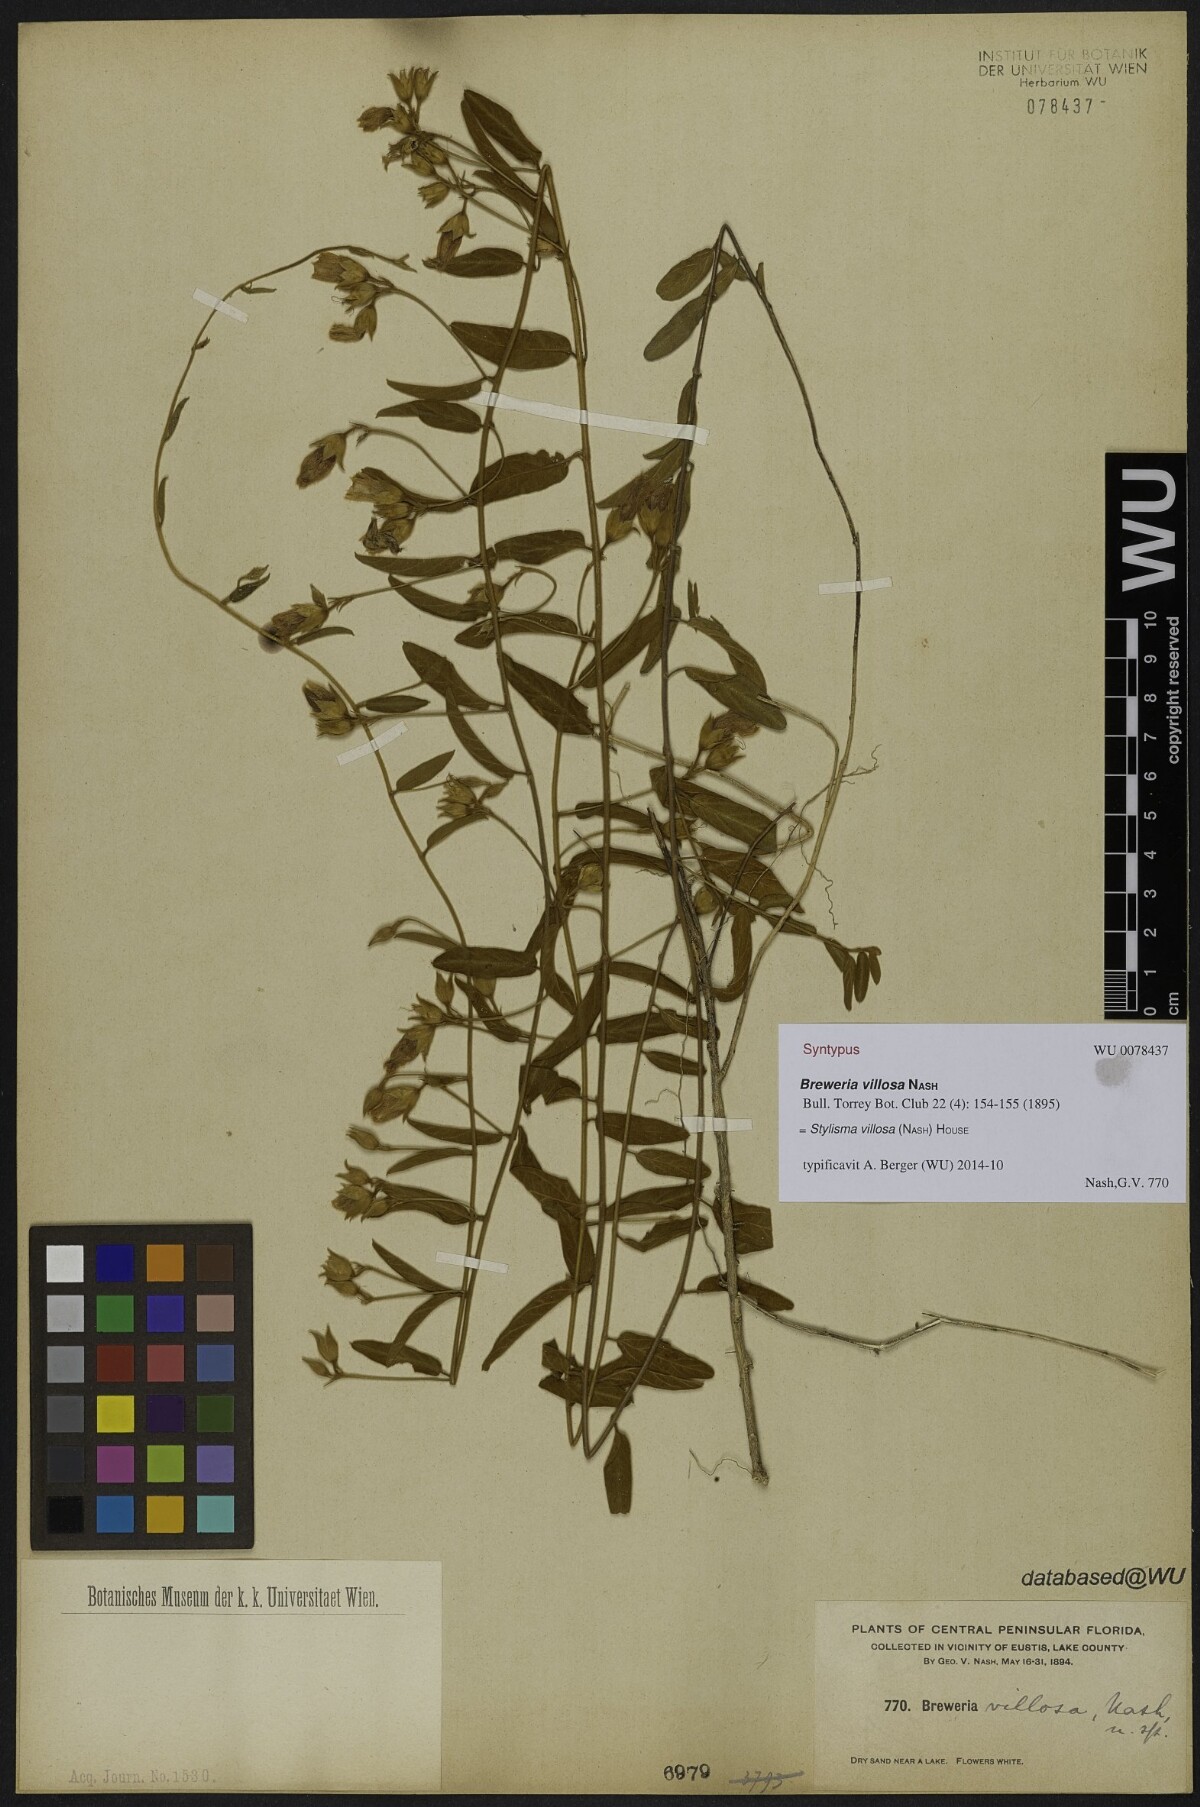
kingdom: Plantae
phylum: Tracheophyta
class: Magnoliopsida
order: Solanales
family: Convolvulaceae
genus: Stylisma
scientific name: Stylisma villosa
